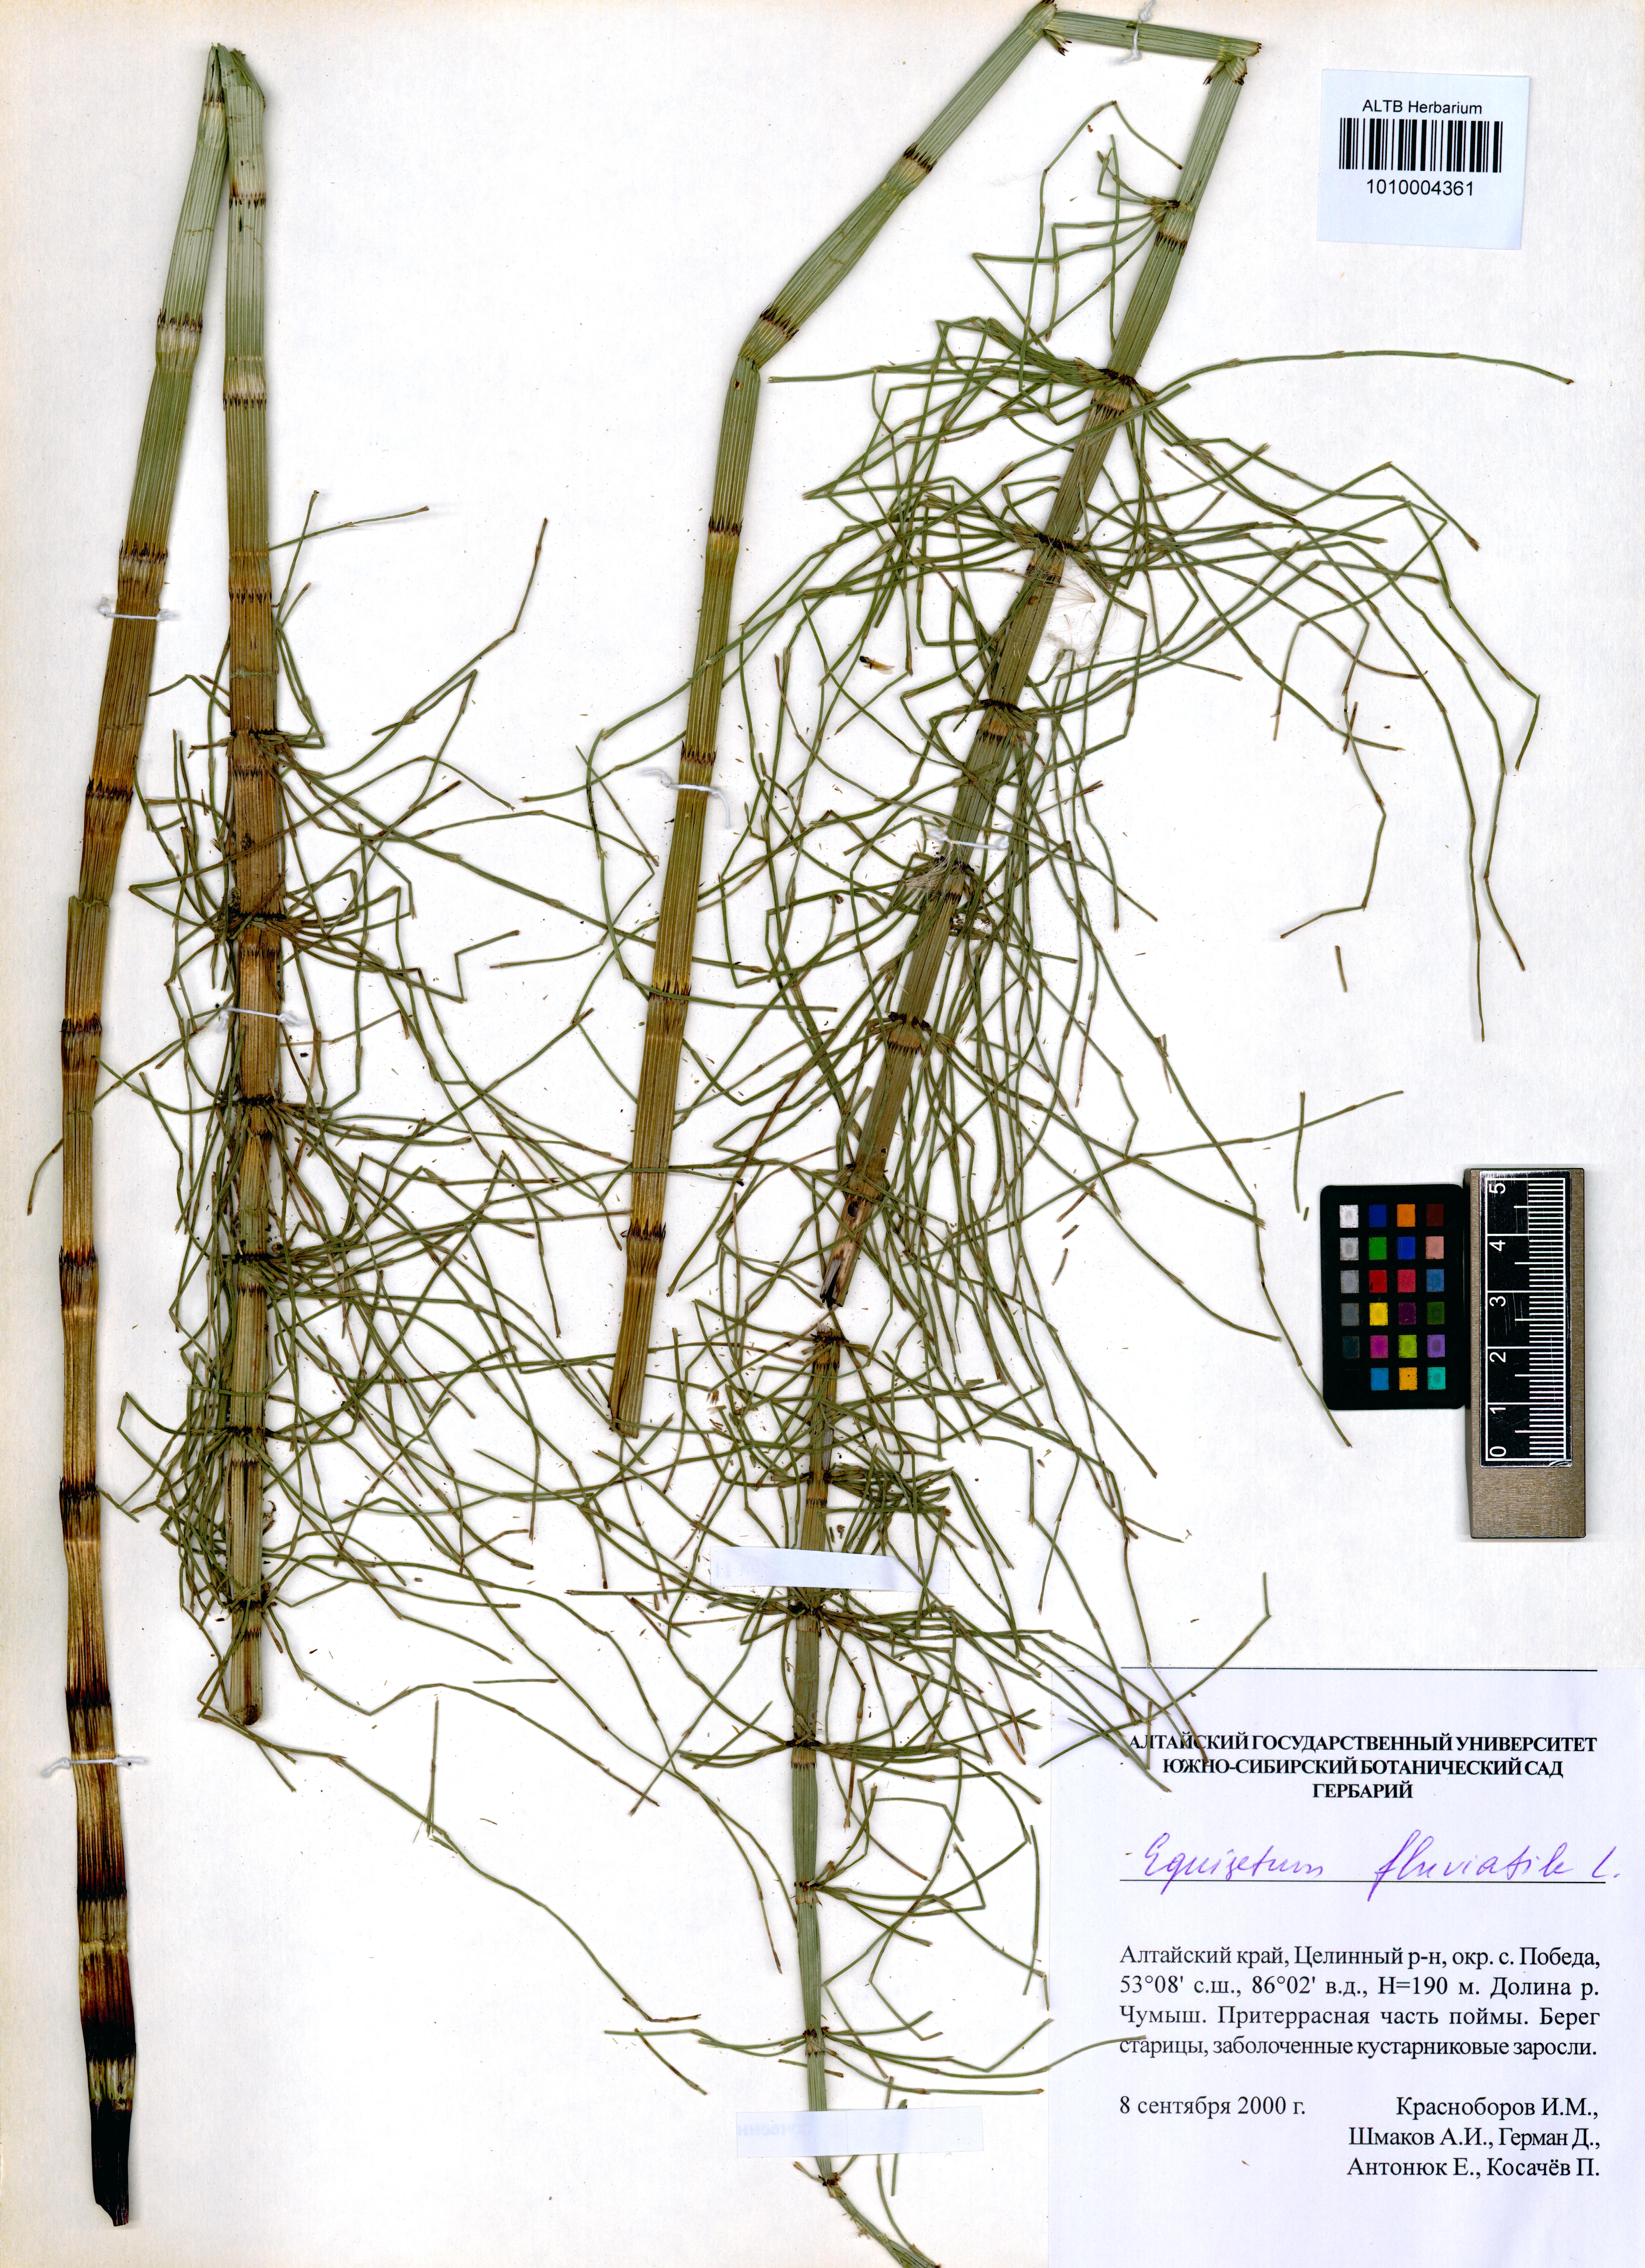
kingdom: Plantae
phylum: Tracheophyta
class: Polypodiopsida
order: Equisetales
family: Equisetaceae
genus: Equisetum
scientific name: Equisetum fluviatile
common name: Water horsetail
